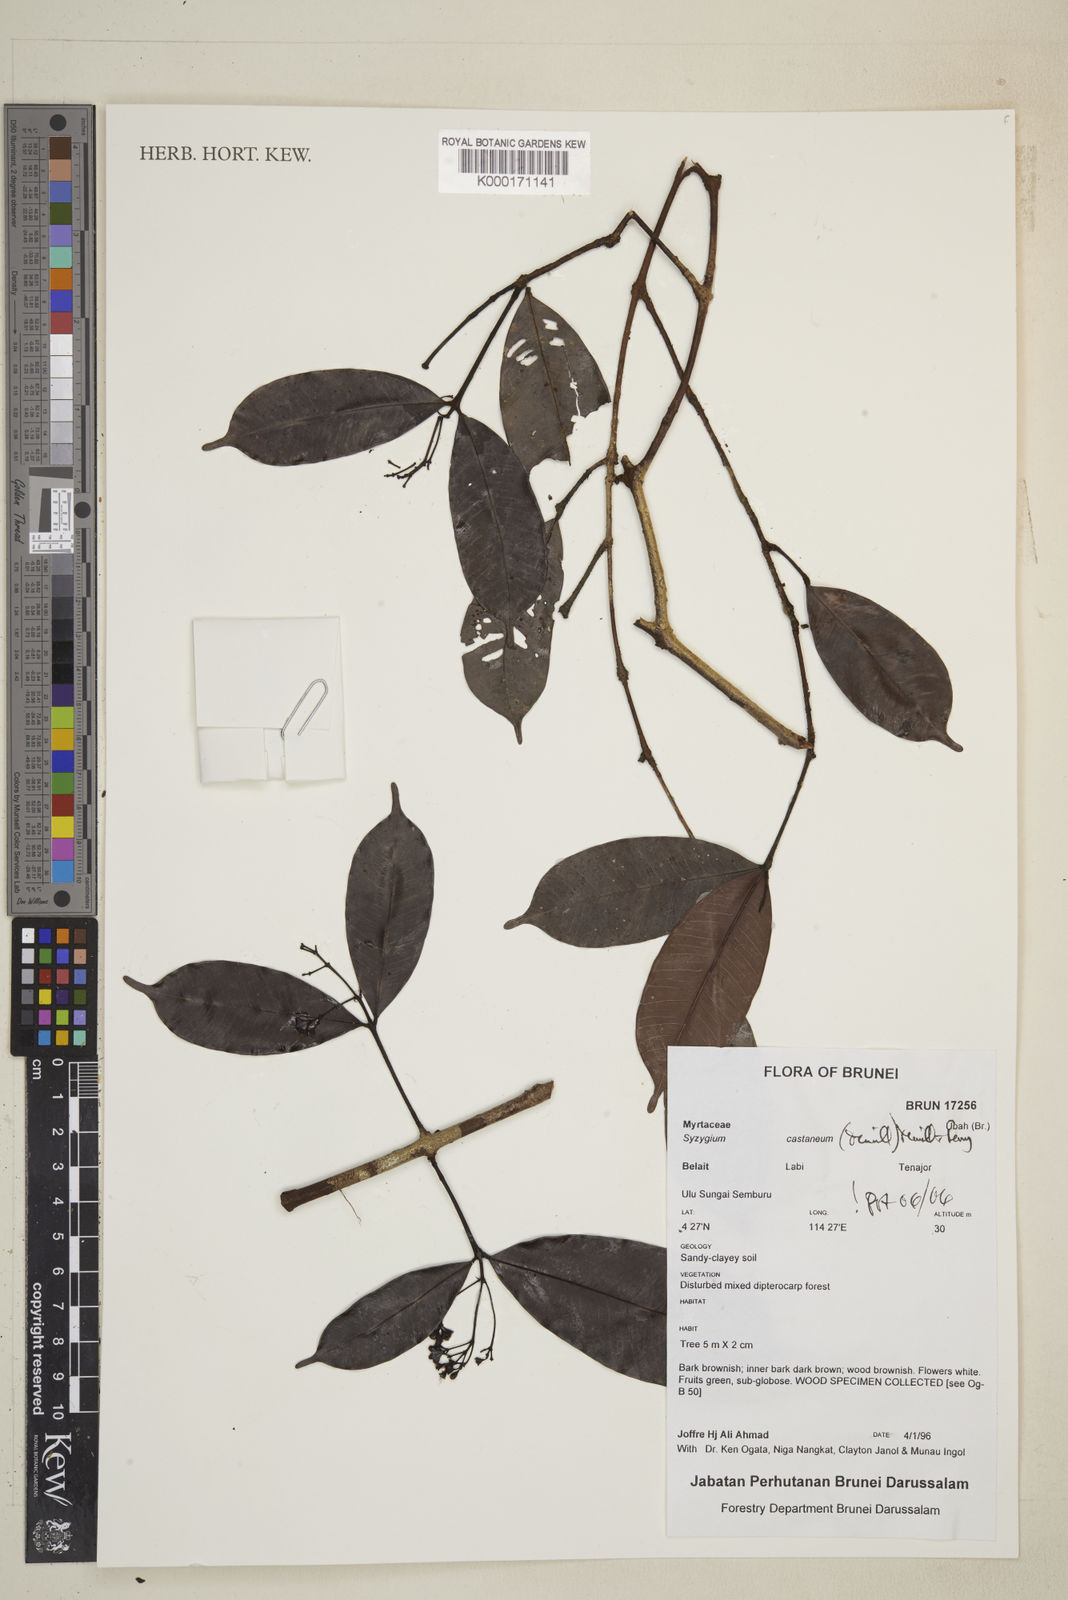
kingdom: Plantae
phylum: Tracheophyta
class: Magnoliopsida
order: Myrtales
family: Myrtaceae
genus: Syzygium
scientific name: Syzygium castaneum
